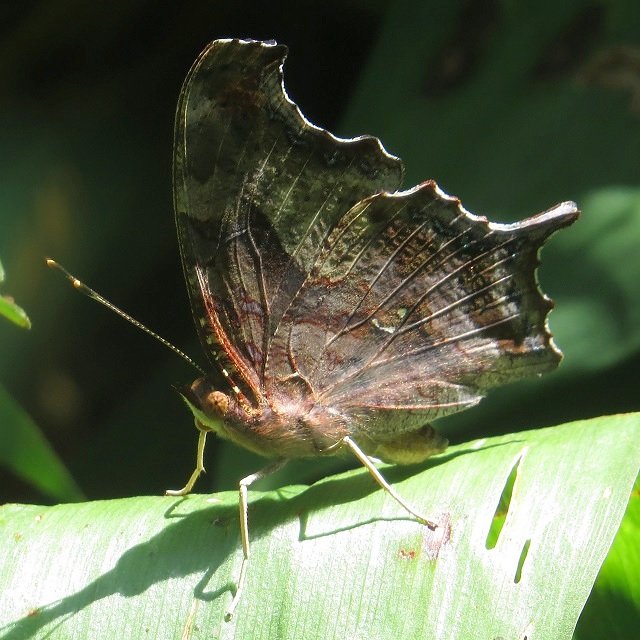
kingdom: Animalia
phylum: Arthropoda
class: Insecta
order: Lepidoptera
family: Nymphalidae
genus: Polygonia
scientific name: Polygonia interrogationis
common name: Question Mark
